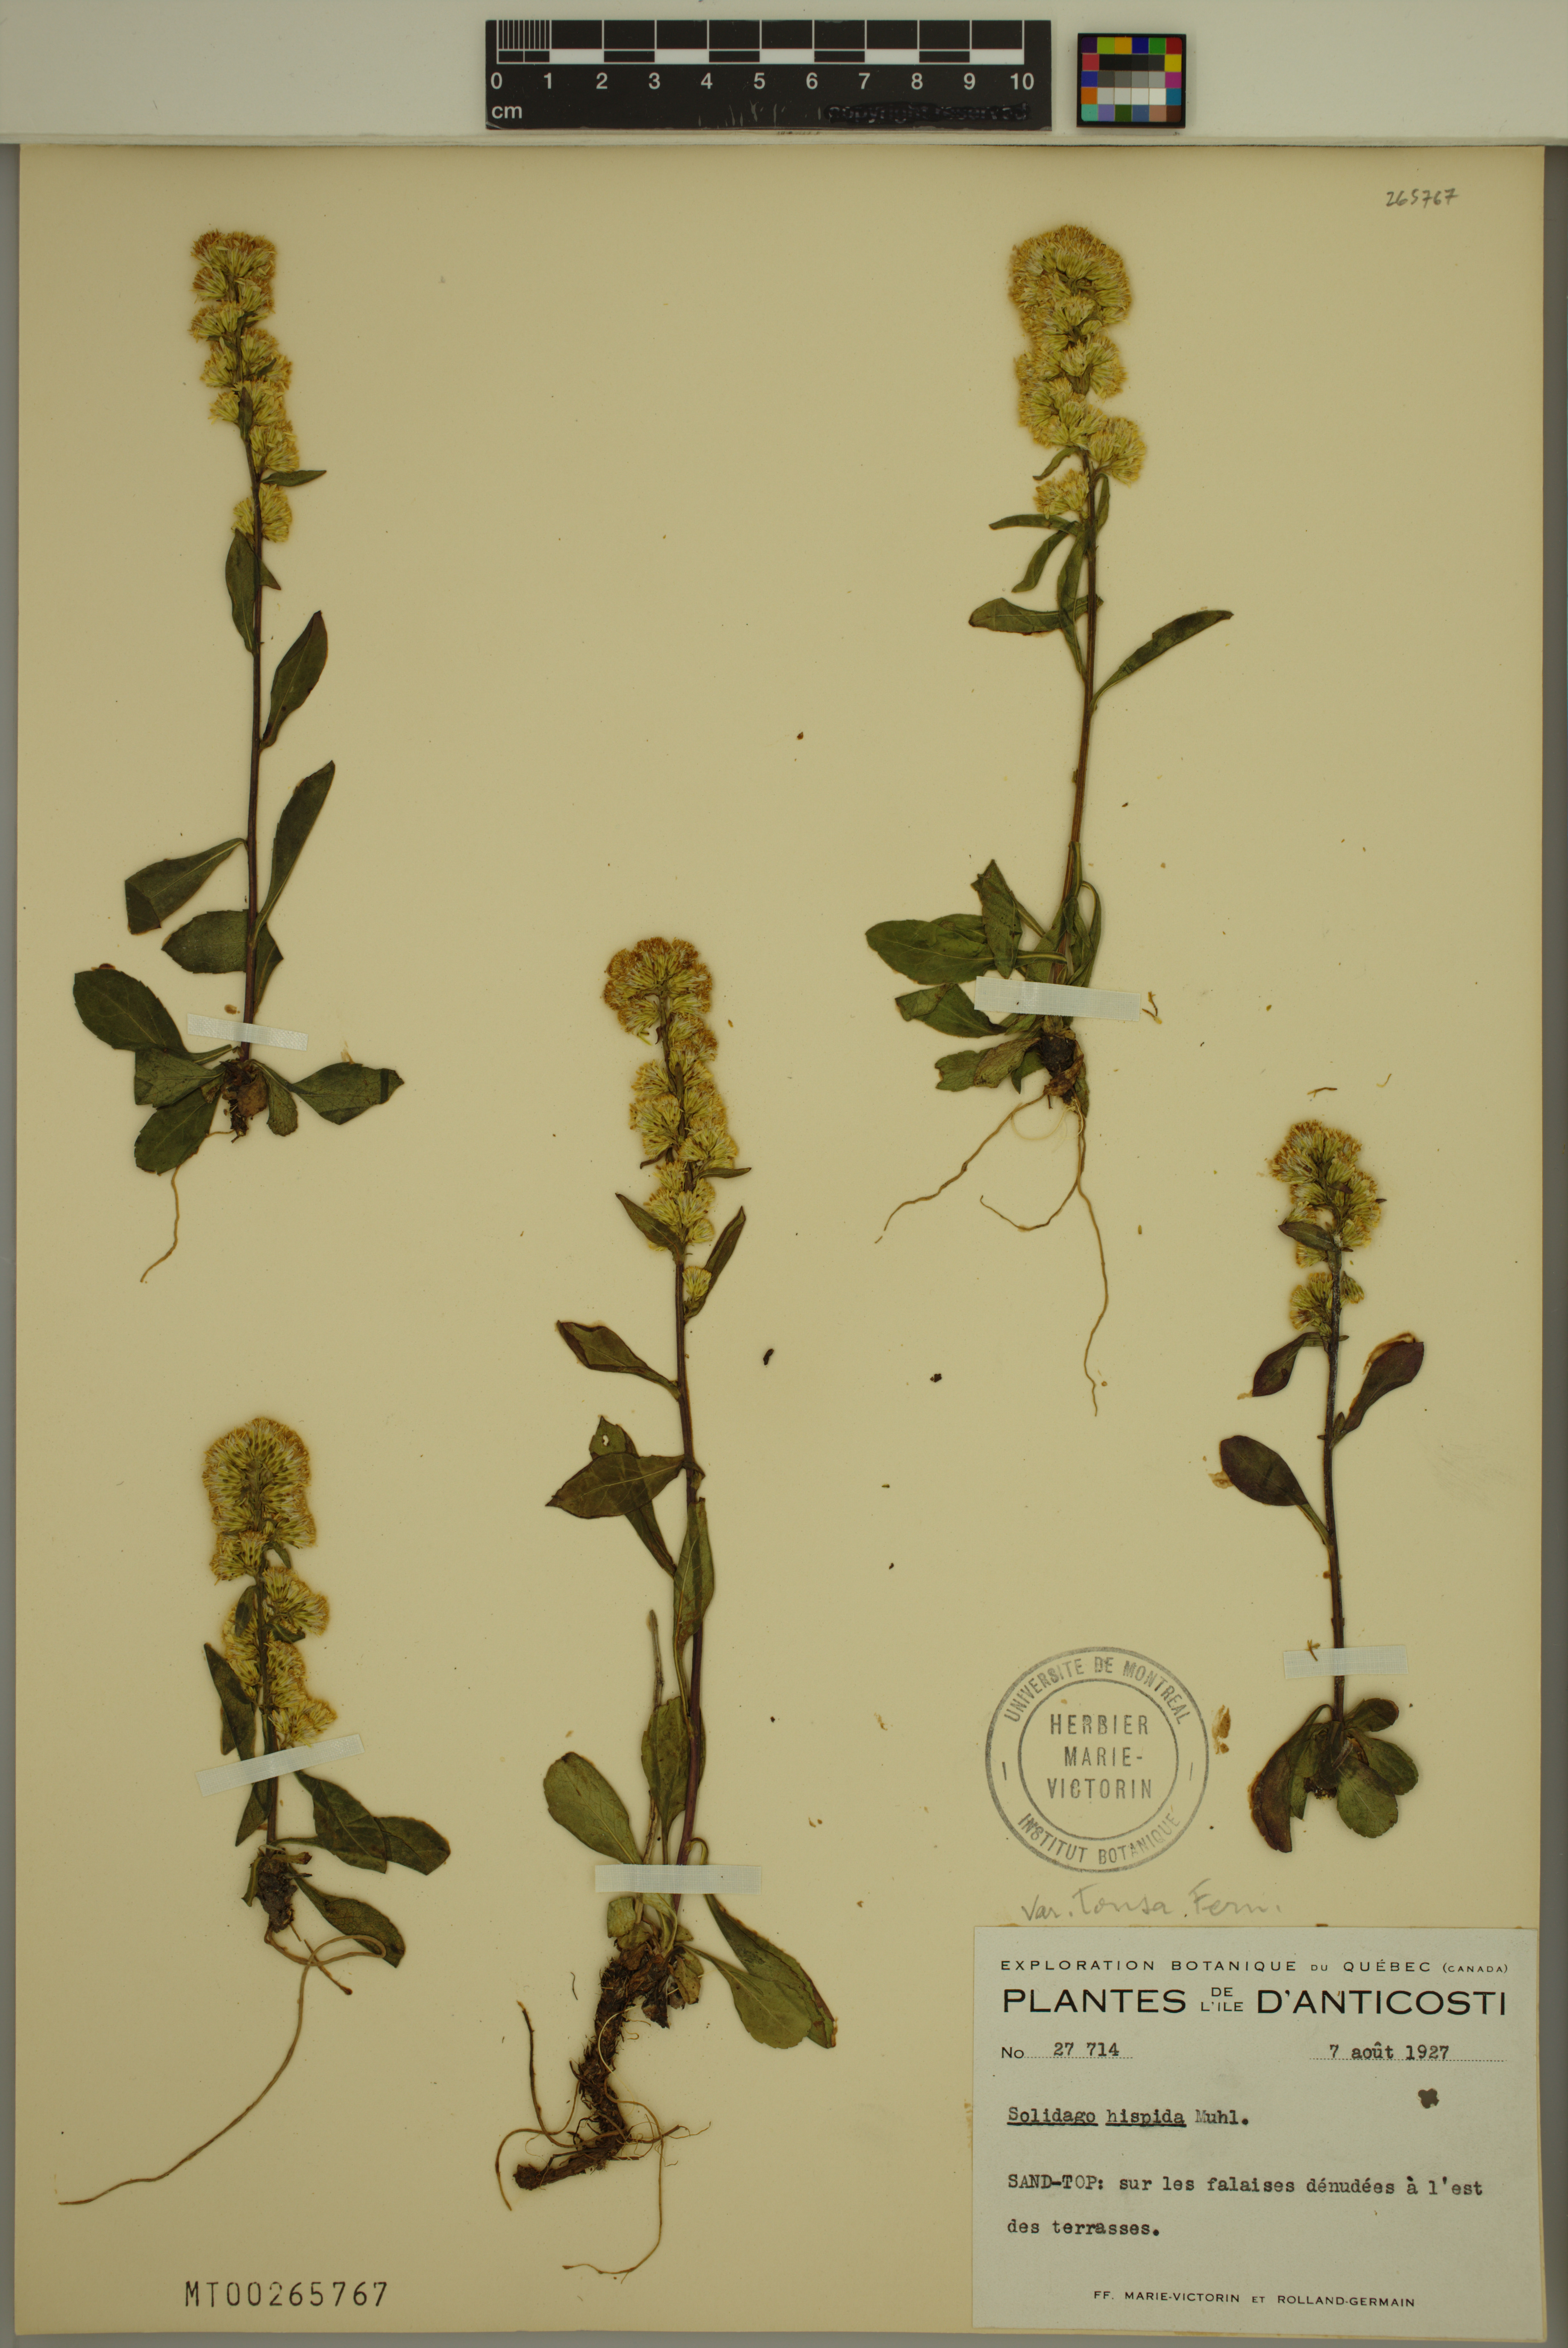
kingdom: Plantae
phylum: Tracheophyta
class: Magnoliopsida
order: Asterales
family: Asteraceae
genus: Solidago
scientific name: Solidago hispida
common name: Hairy goldenrod
